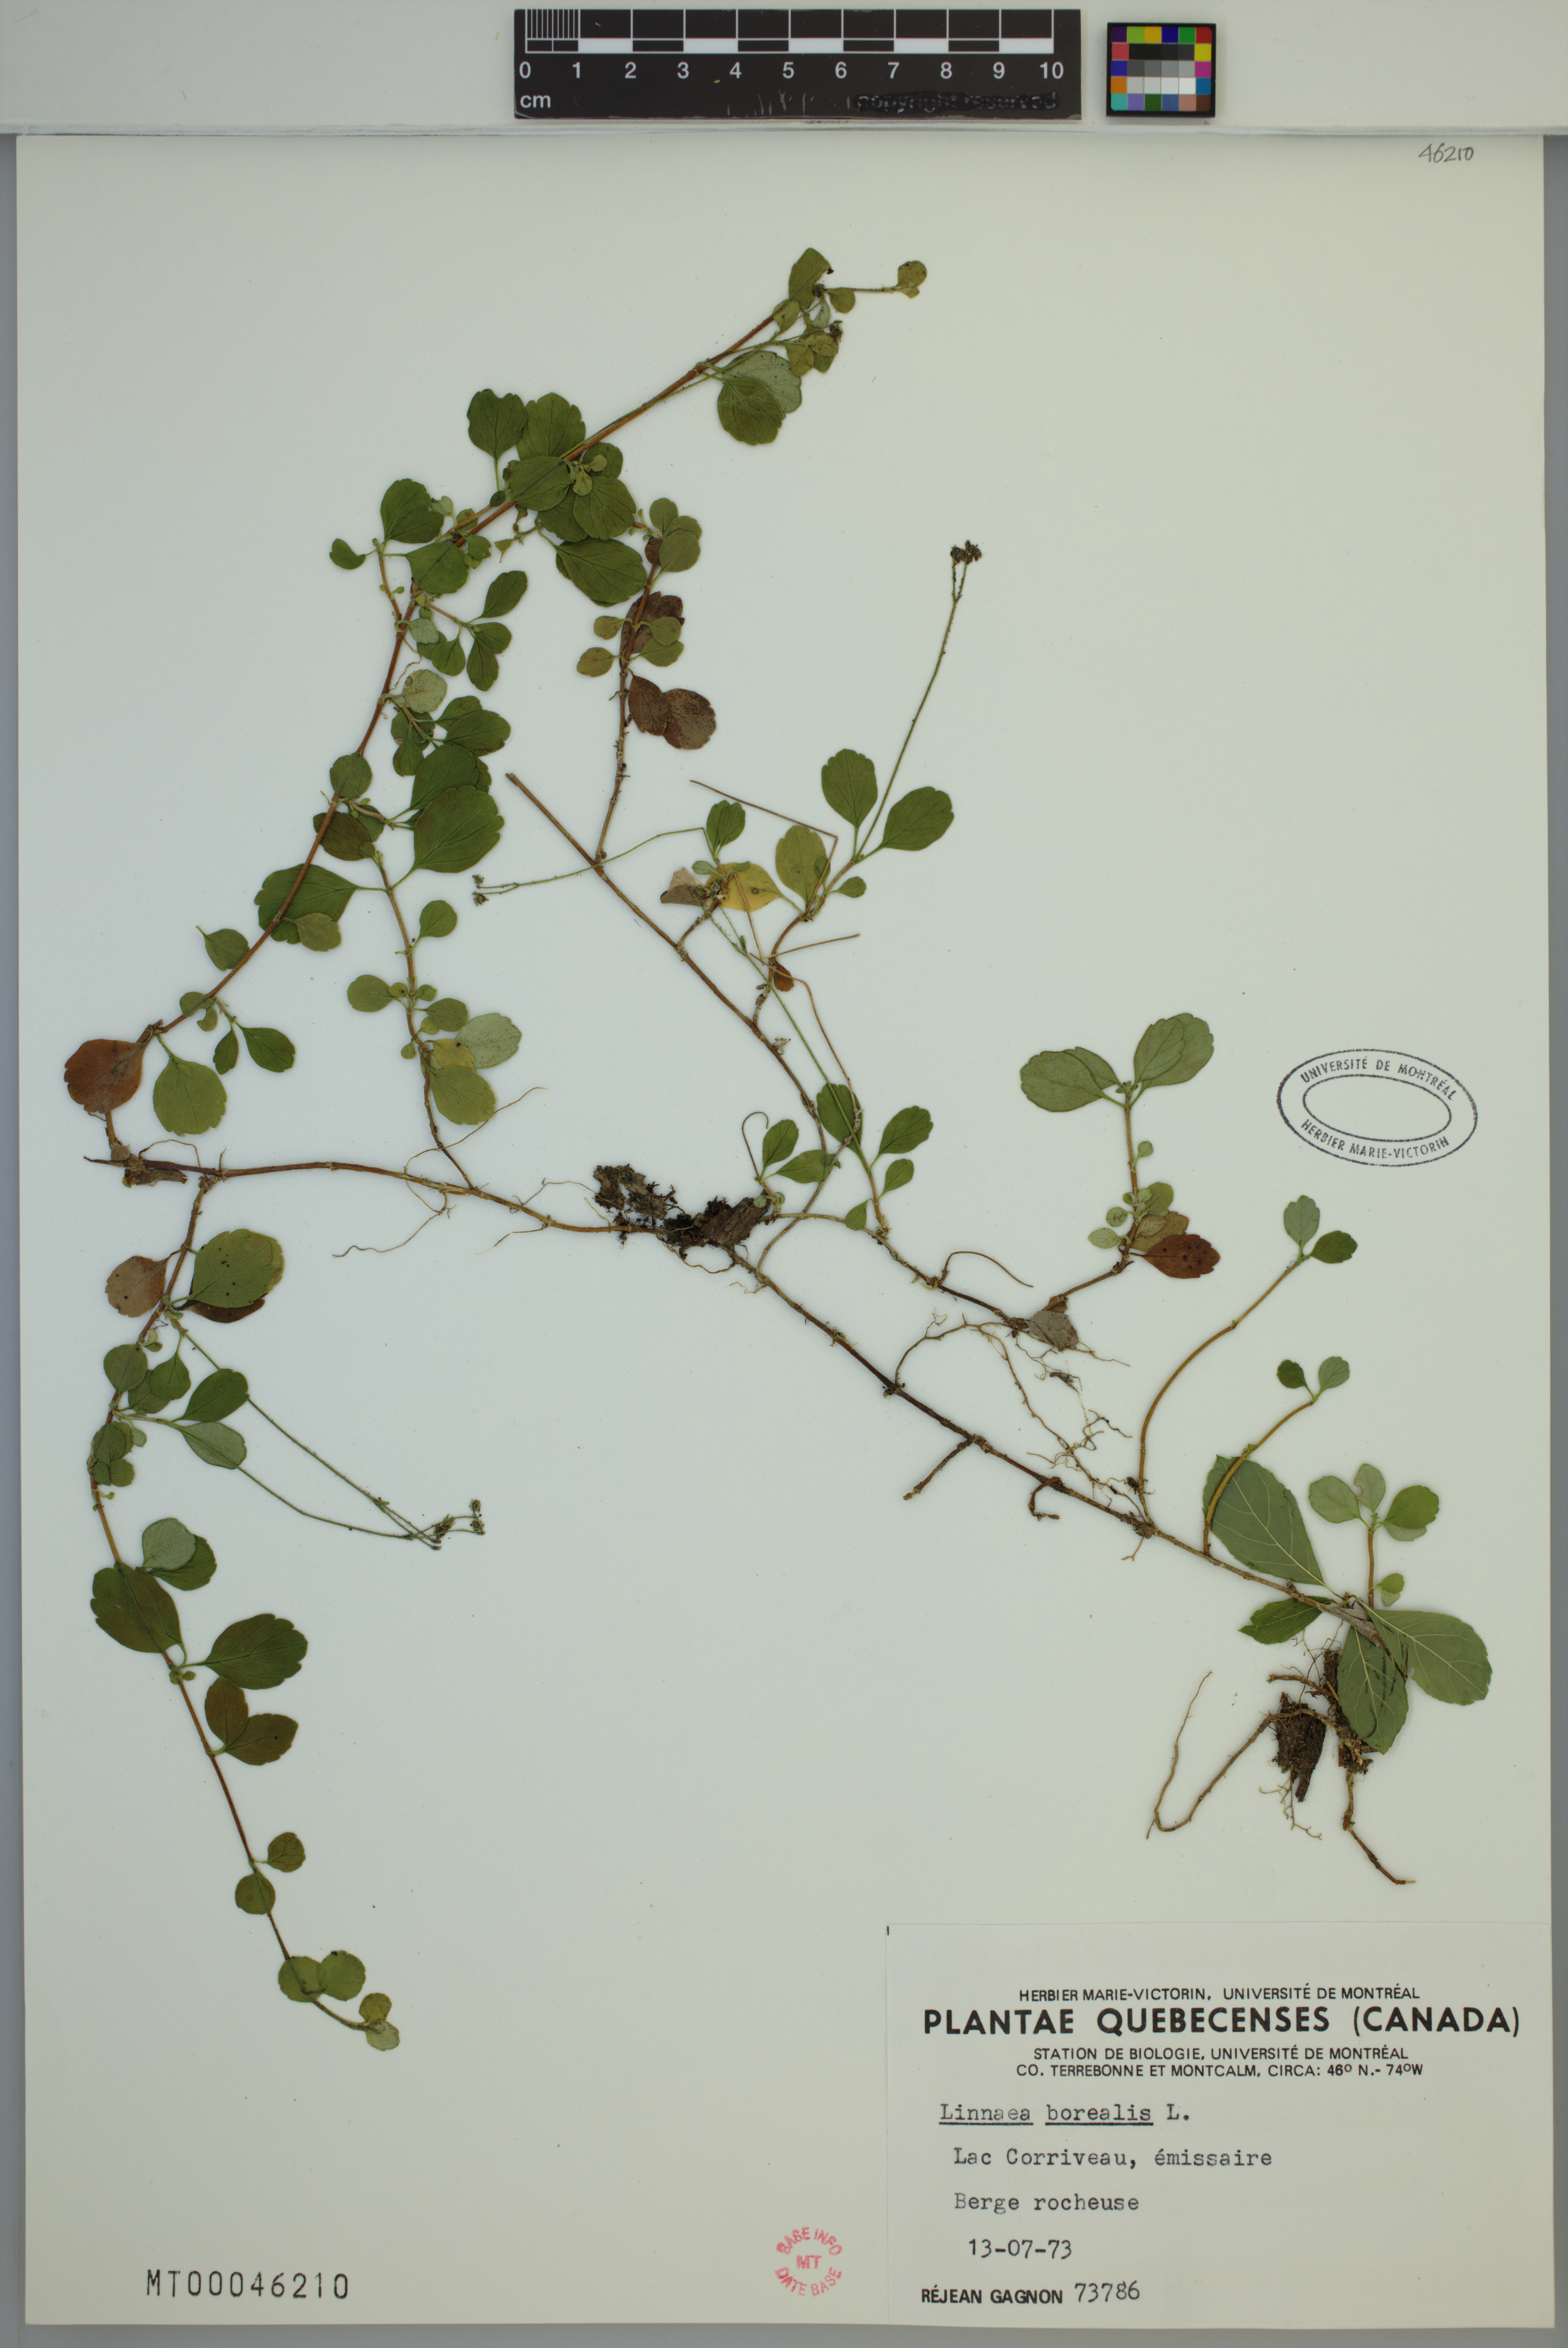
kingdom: Plantae
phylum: Tracheophyta
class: Magnoliopsida
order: Dipsacales
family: Caprifoliaceae
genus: Linnaea
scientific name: Linnaea borealis
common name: Twinflower
